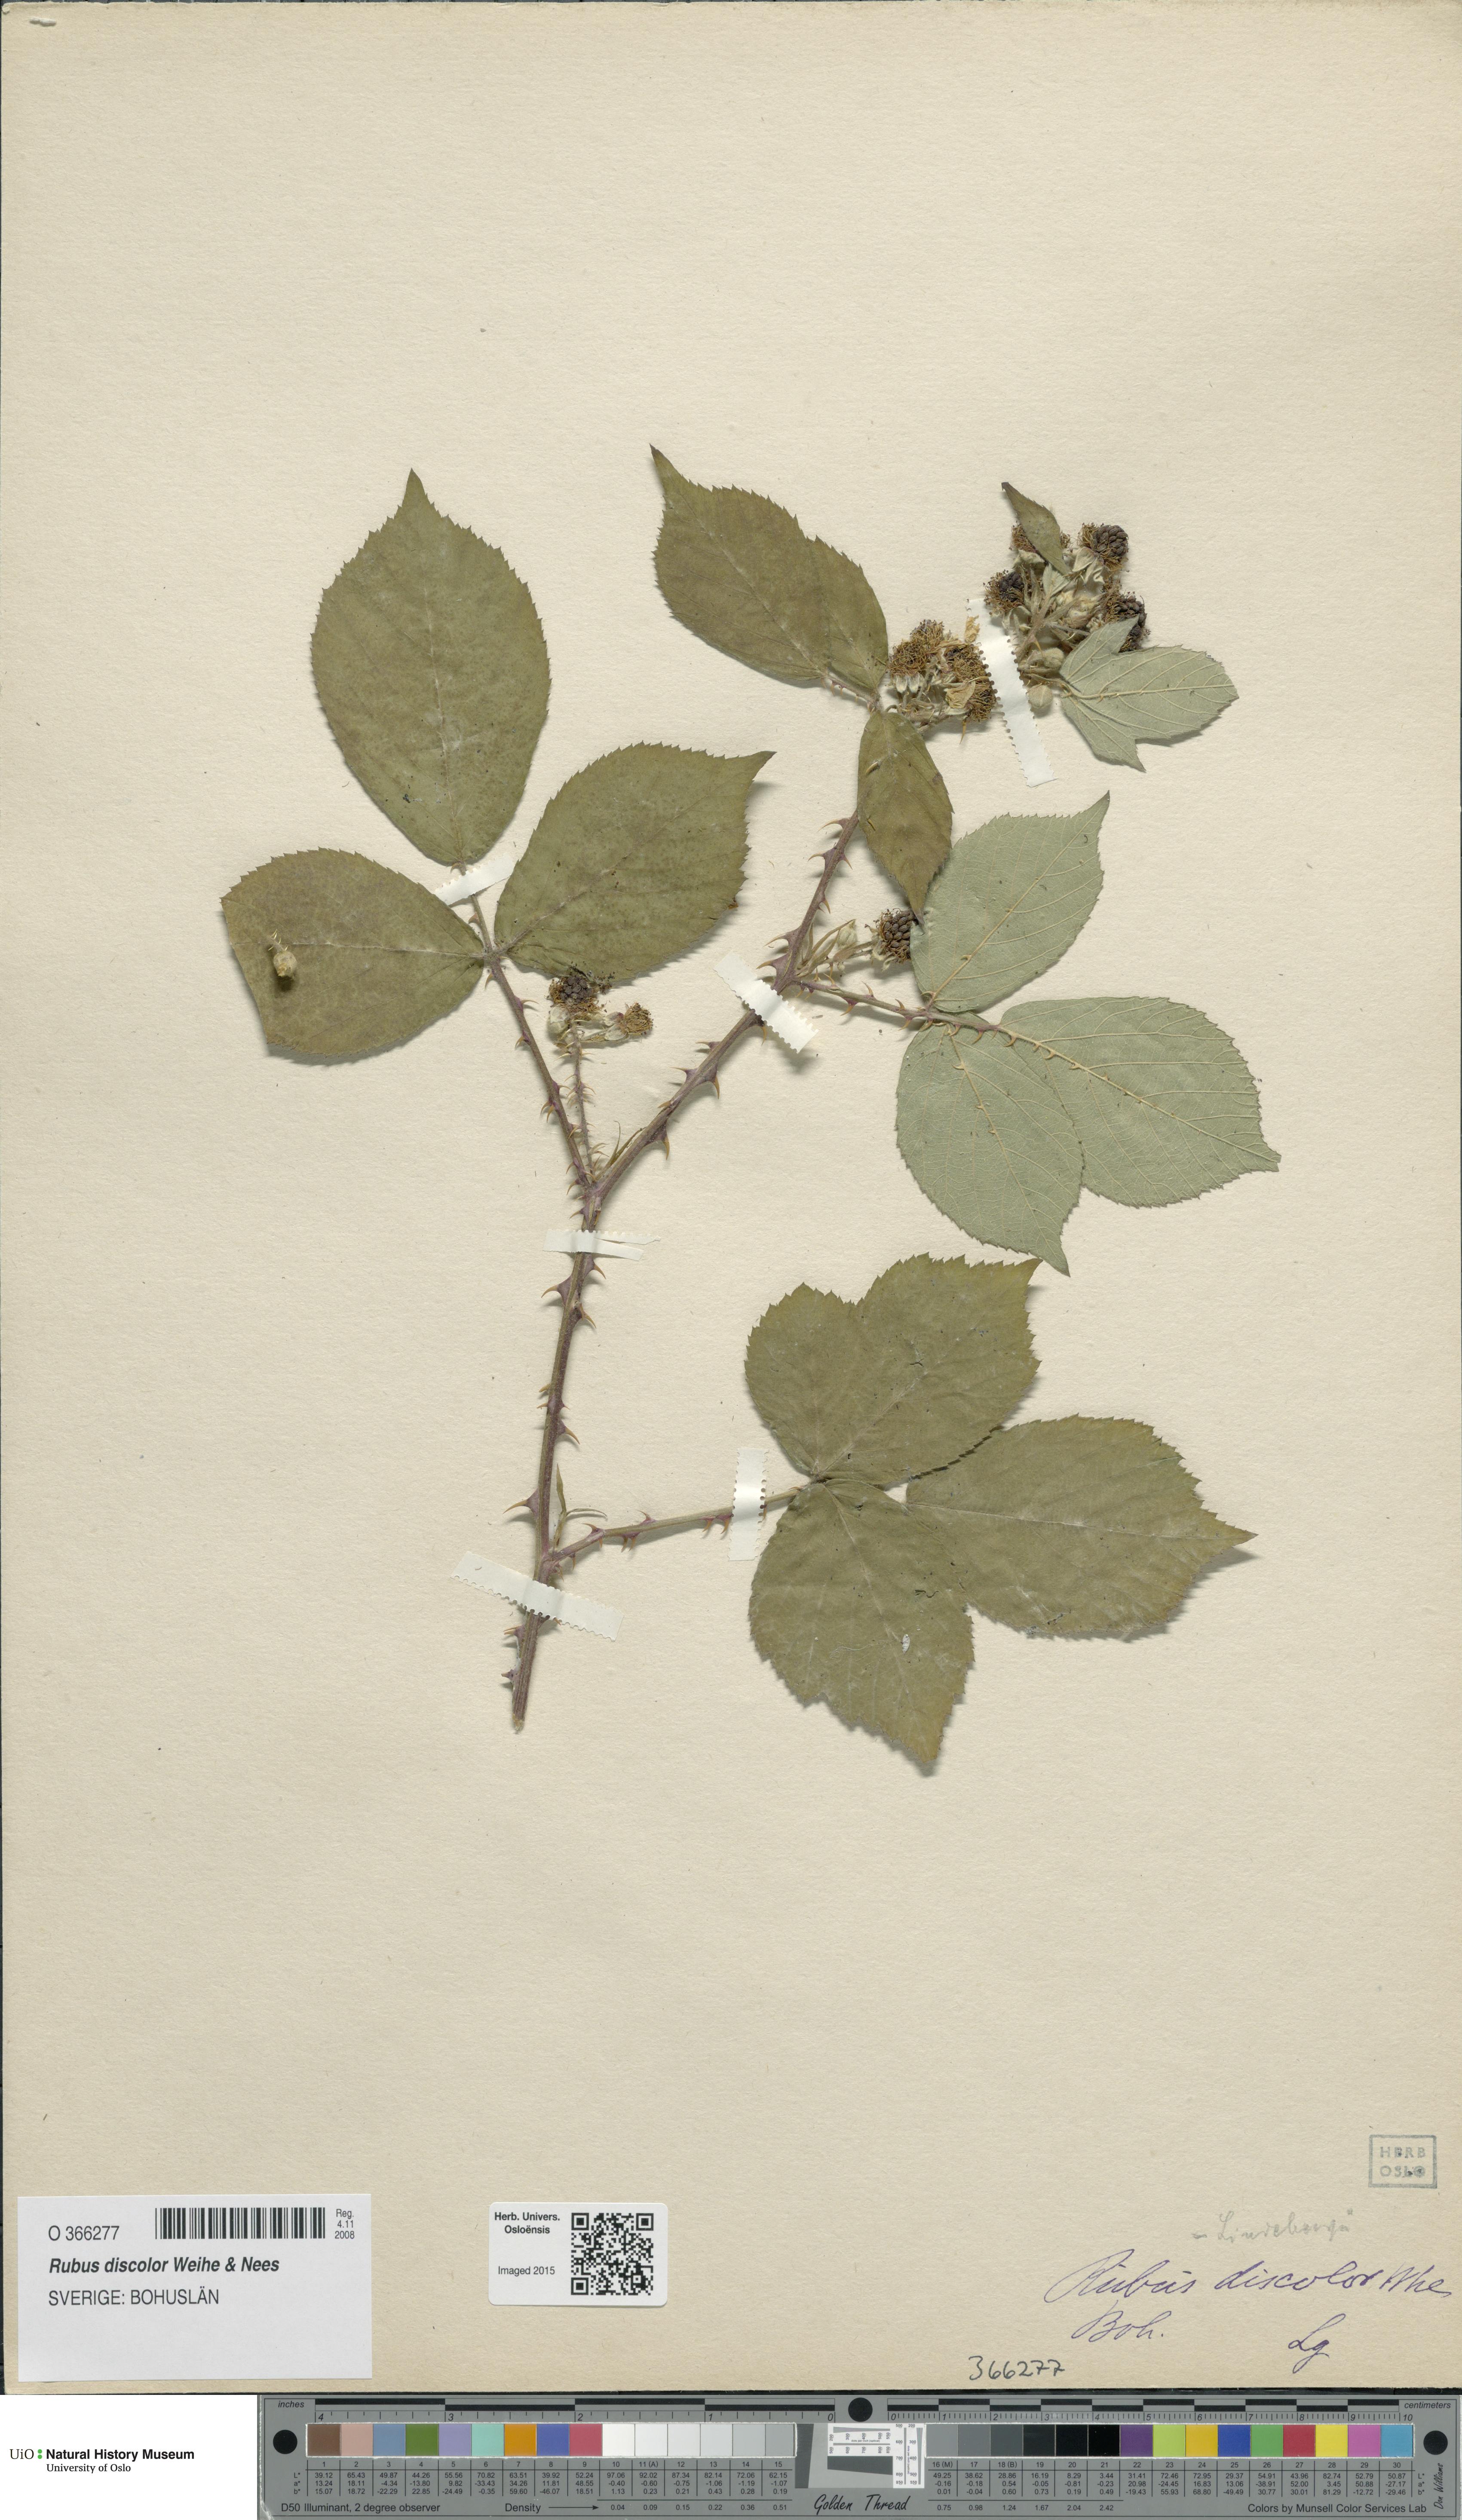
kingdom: Plantae
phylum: Tracheophyta
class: Magnoliopsida
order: Rosales
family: Rosaceae
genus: Rubus
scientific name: Rubus ulmifolius
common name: Elmleaf blackberry
